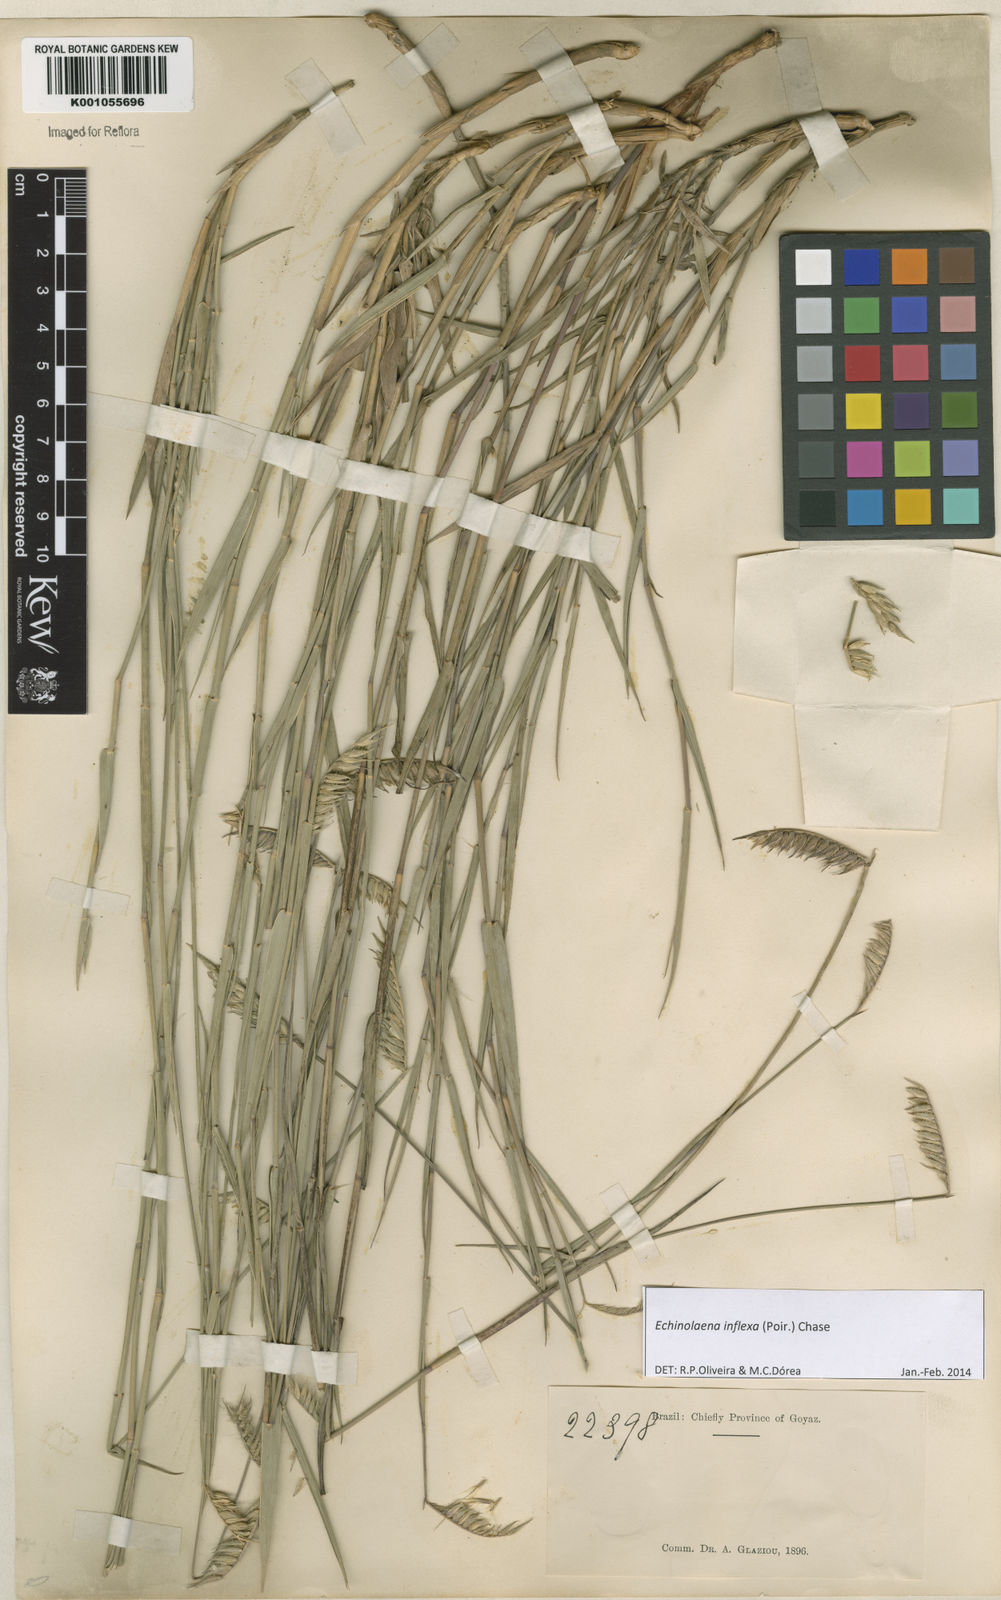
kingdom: Plantae
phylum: Tracheophyta
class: Liliopsida
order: Poales
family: Poaceae
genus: Echinolaena
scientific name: Echinolaena inflexa
